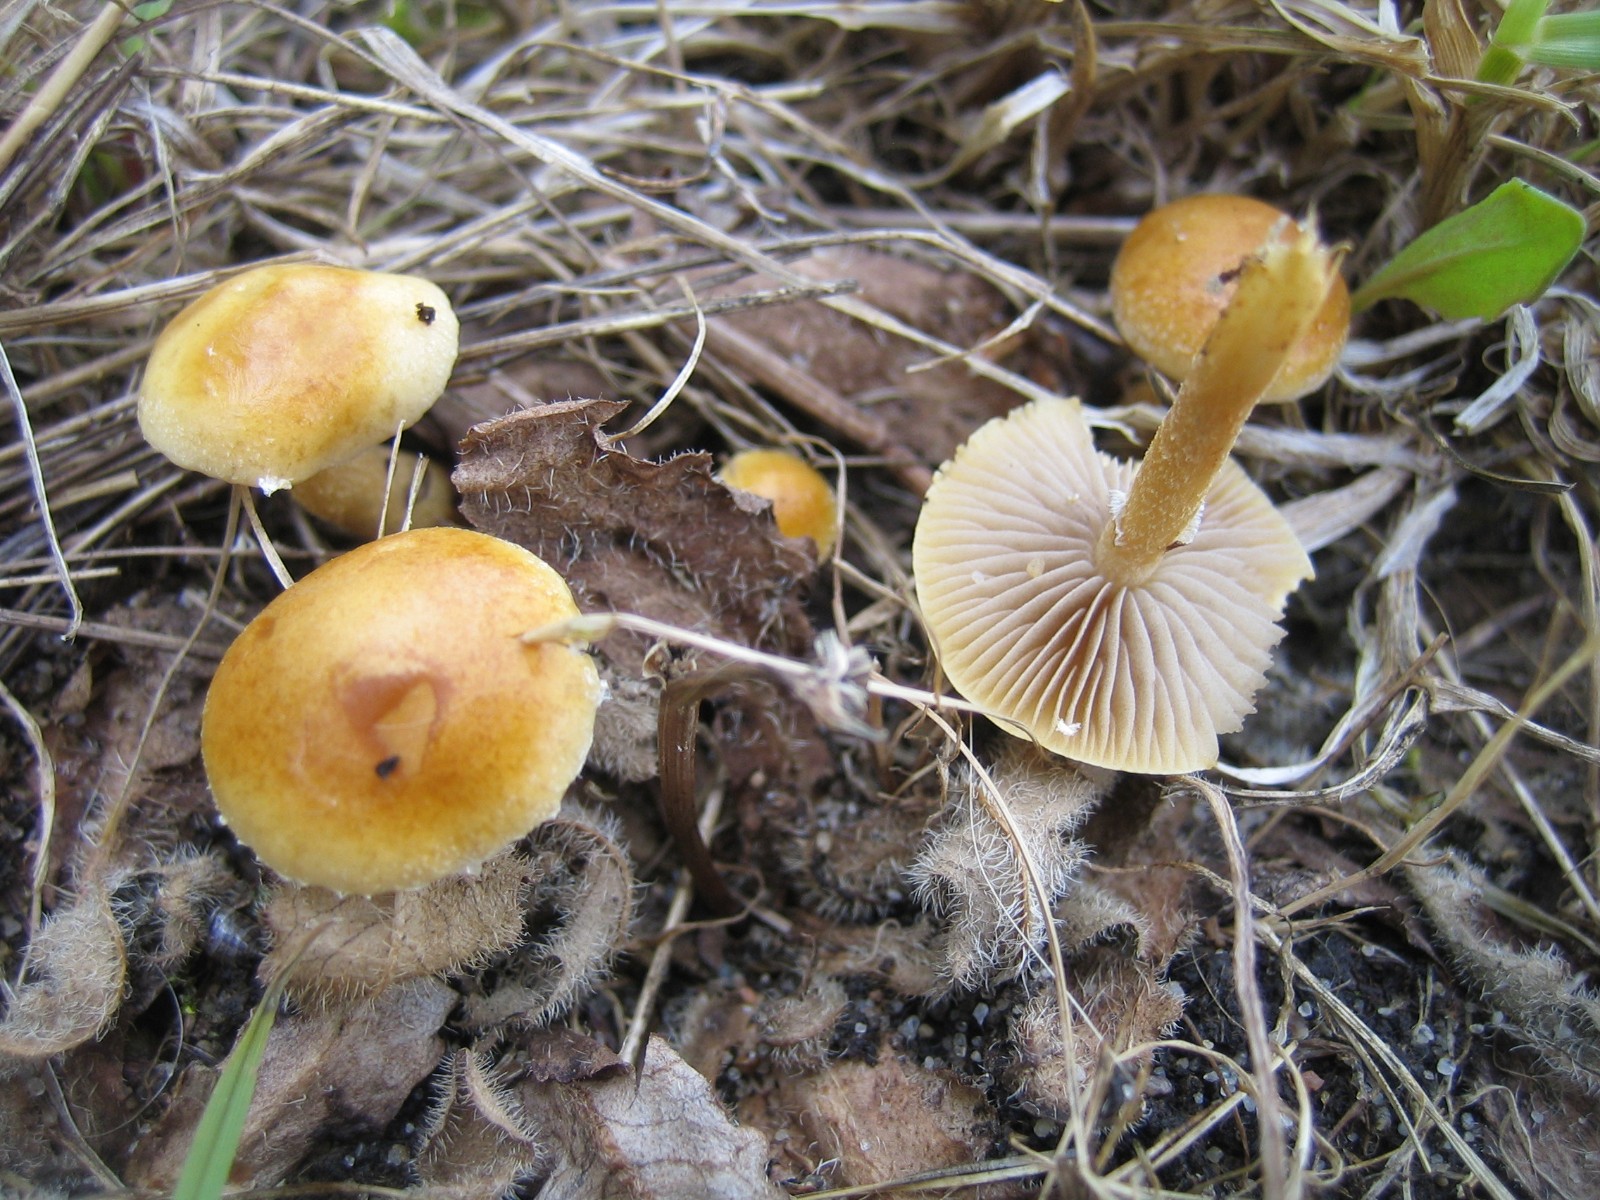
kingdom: Fungi
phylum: Basidiomycota
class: Agaricomycetes
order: Agaricales
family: Strophariaceae
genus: Agrocybe
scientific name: Agrocybe pediades
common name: Common fieldcap
